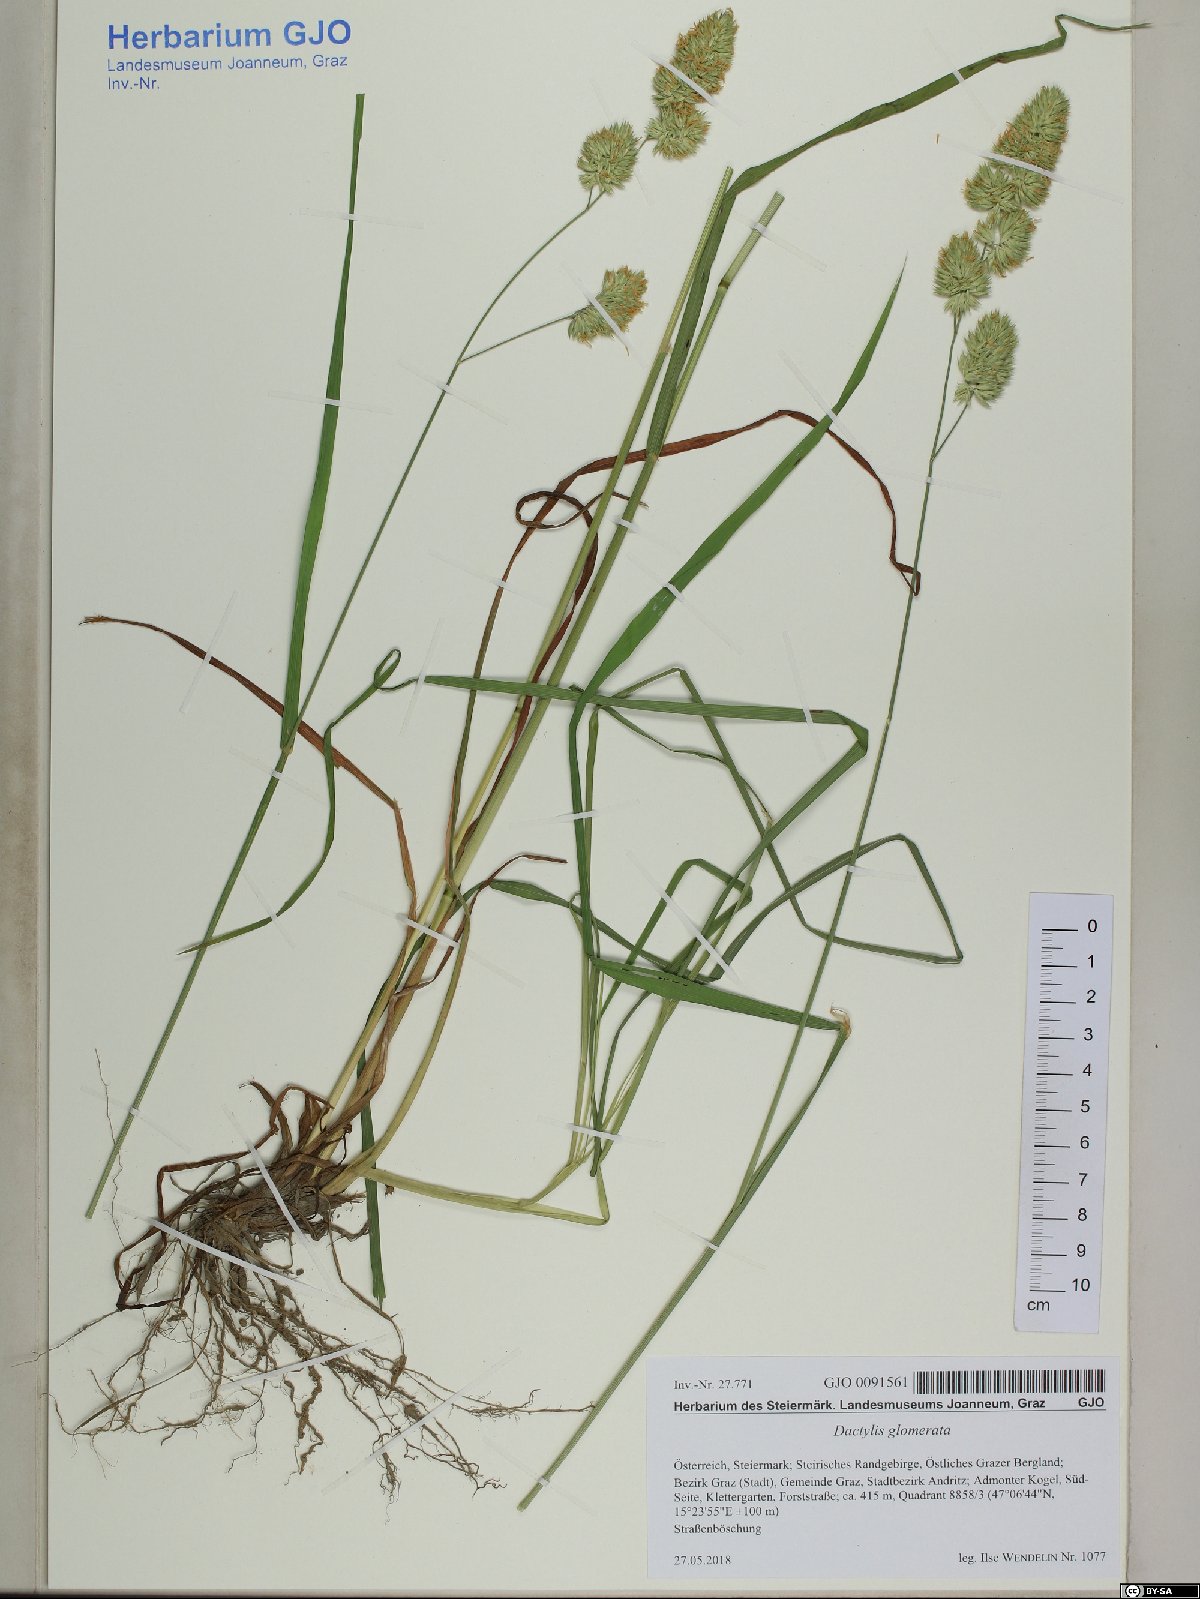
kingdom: Plantae
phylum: Tracheophyta
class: Liliopsida
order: Poales
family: Poaceae
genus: Dactylis
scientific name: Dactylis glomerata
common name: Orchardgrass
